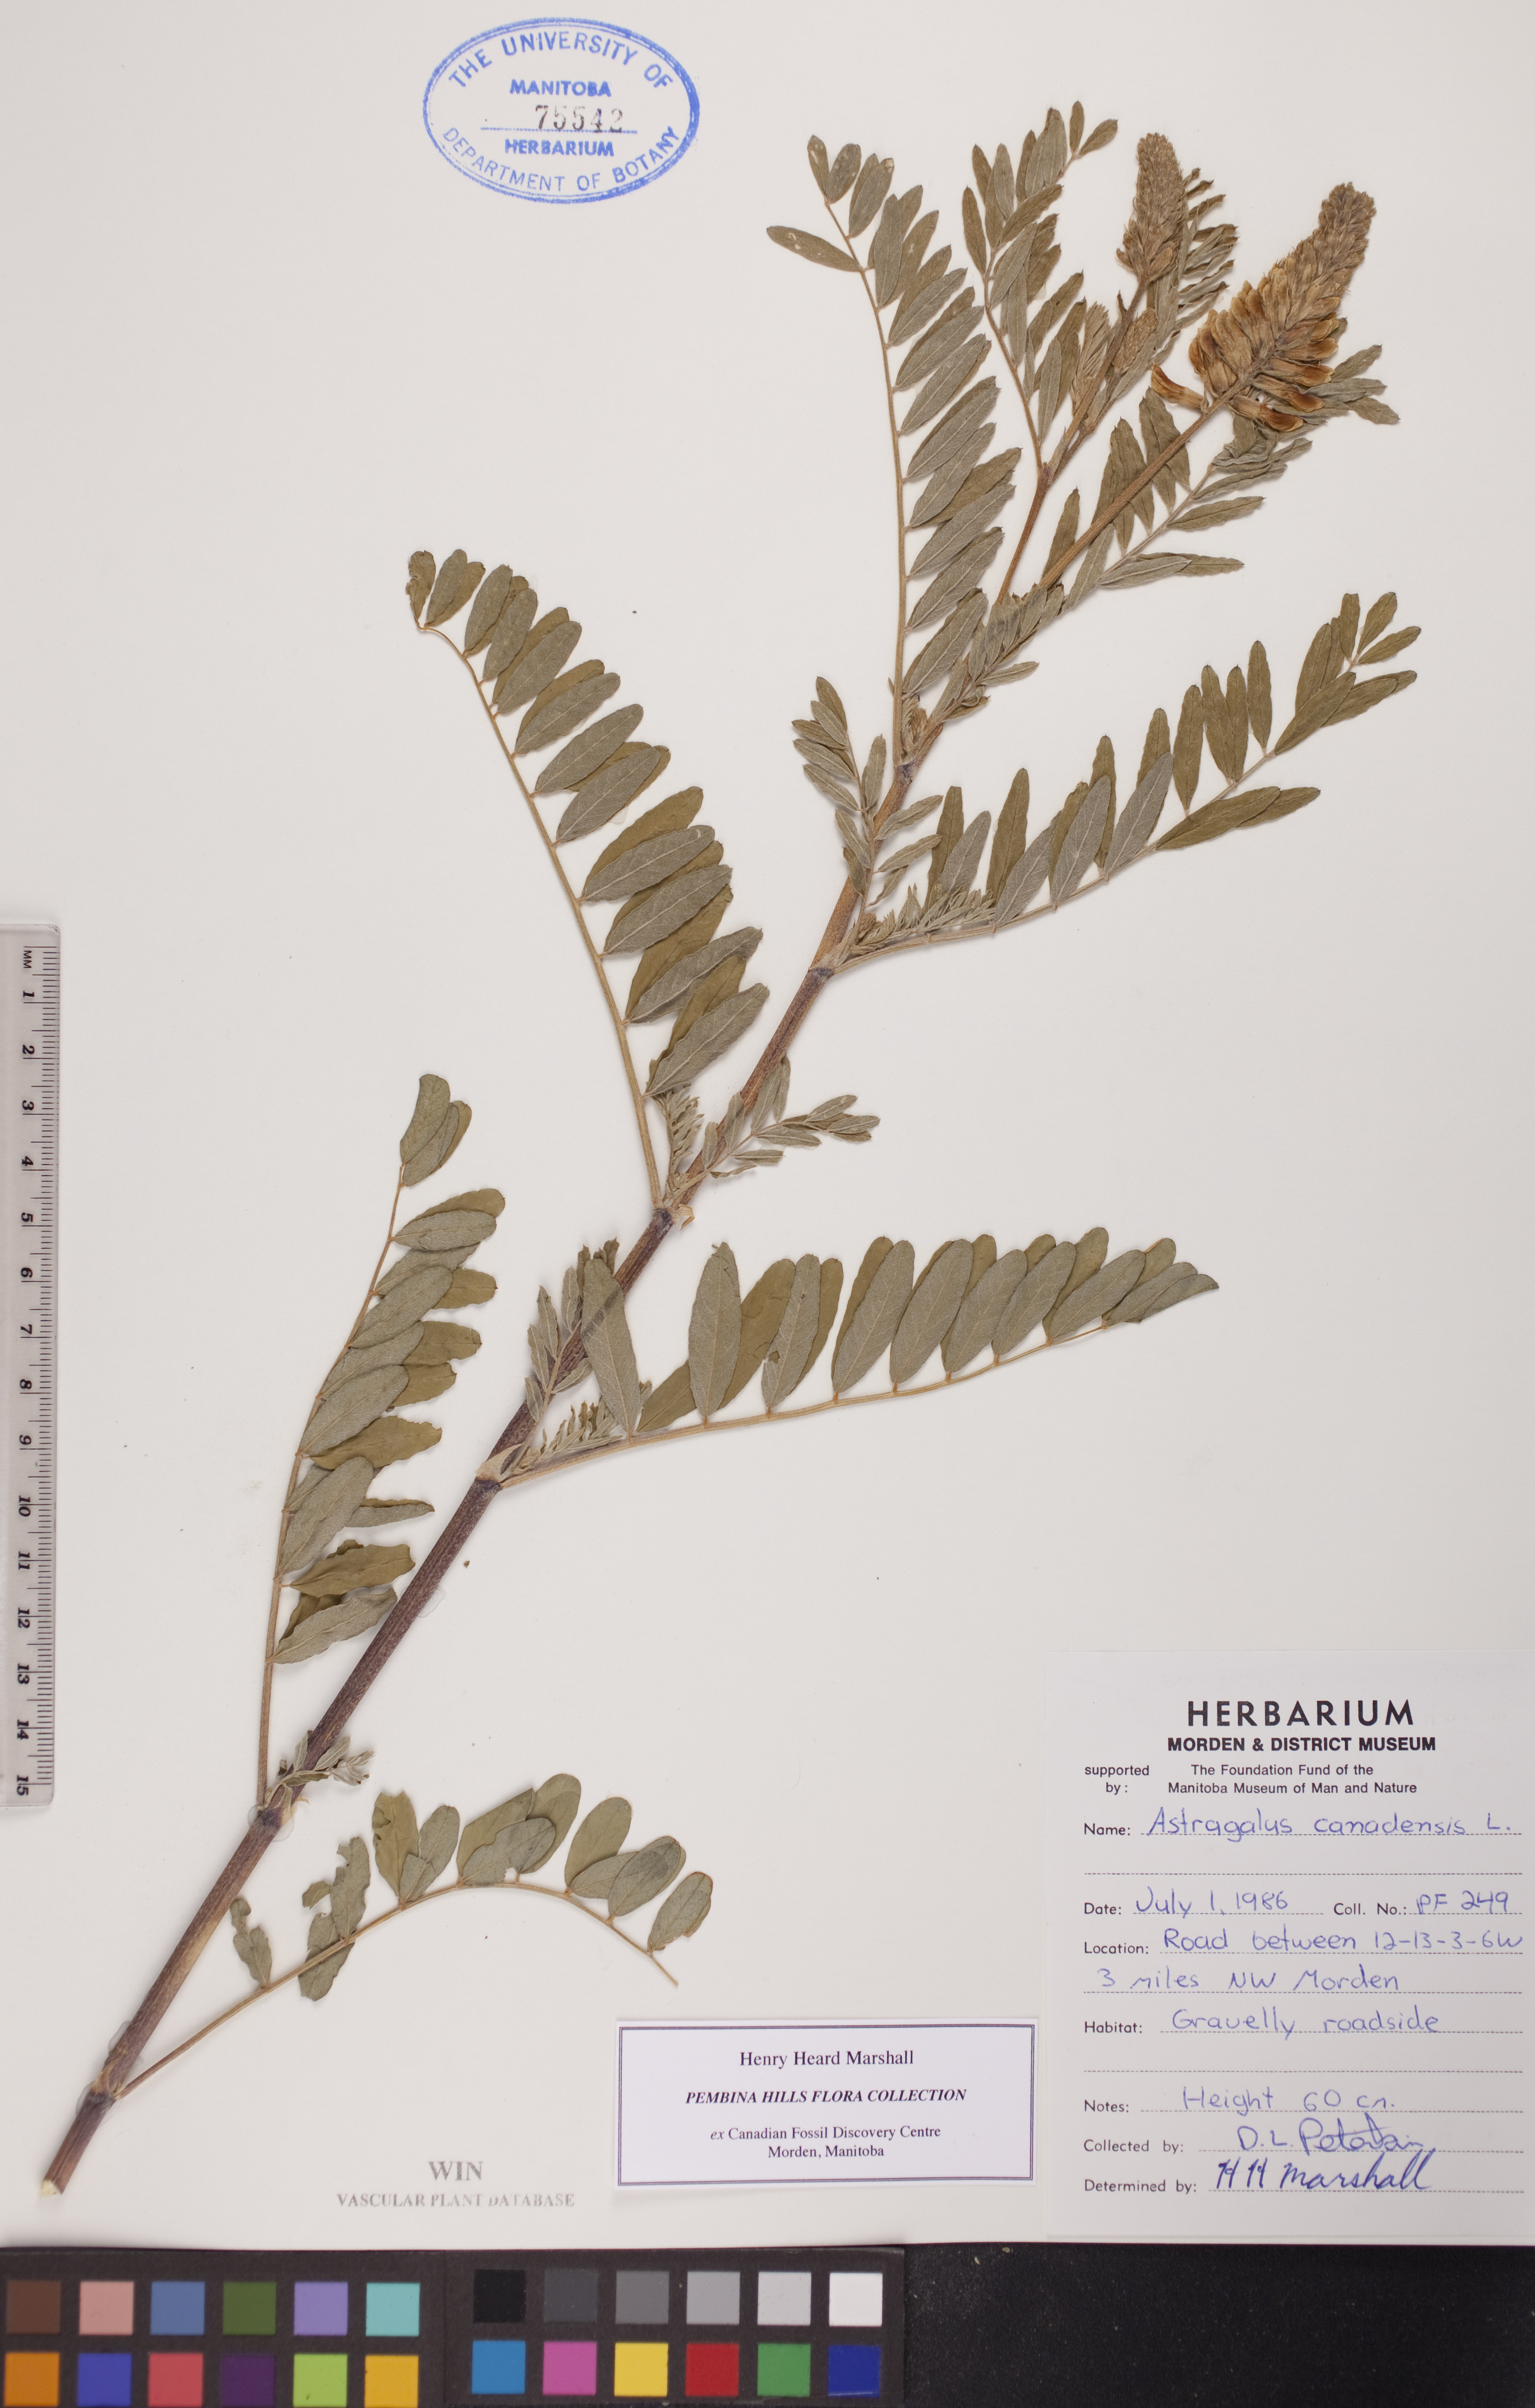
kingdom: Plantae
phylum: Tracheophyta
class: Magnoliopsida
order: Fabales
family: Fabaceae
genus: Astragalus
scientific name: Astragalus canadensis
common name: Canada milk-vetch
